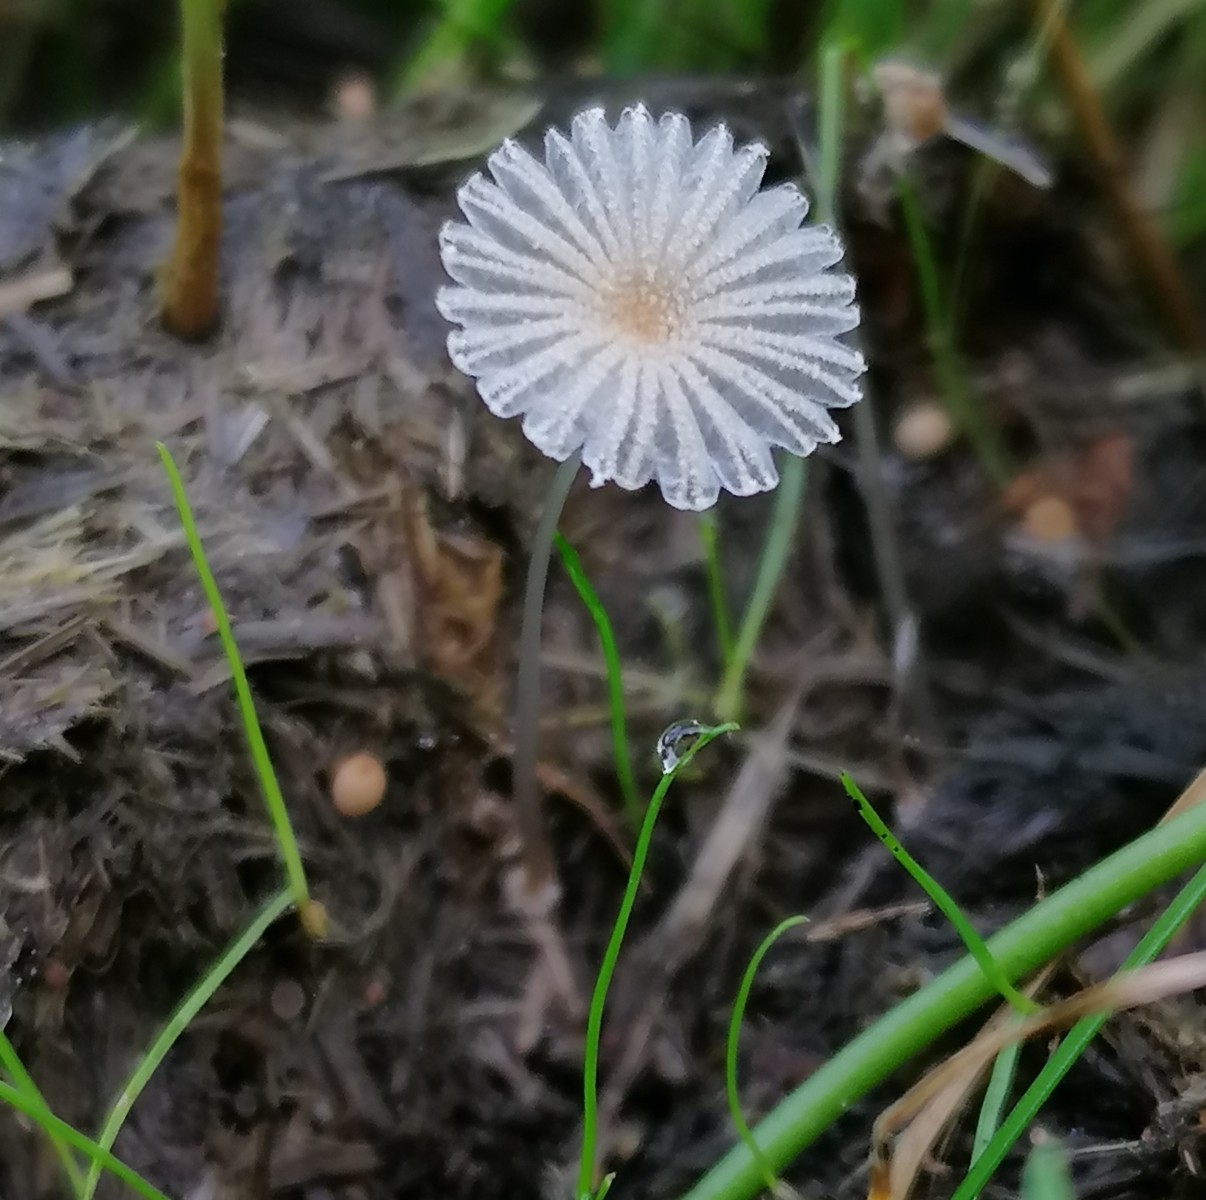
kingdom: Fungi
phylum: Basidiomycota
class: Agaricomycetes
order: Agaricales
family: Psathyrellaceae
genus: Parasola
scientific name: Parasola misera
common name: lillebitte hjulhat
